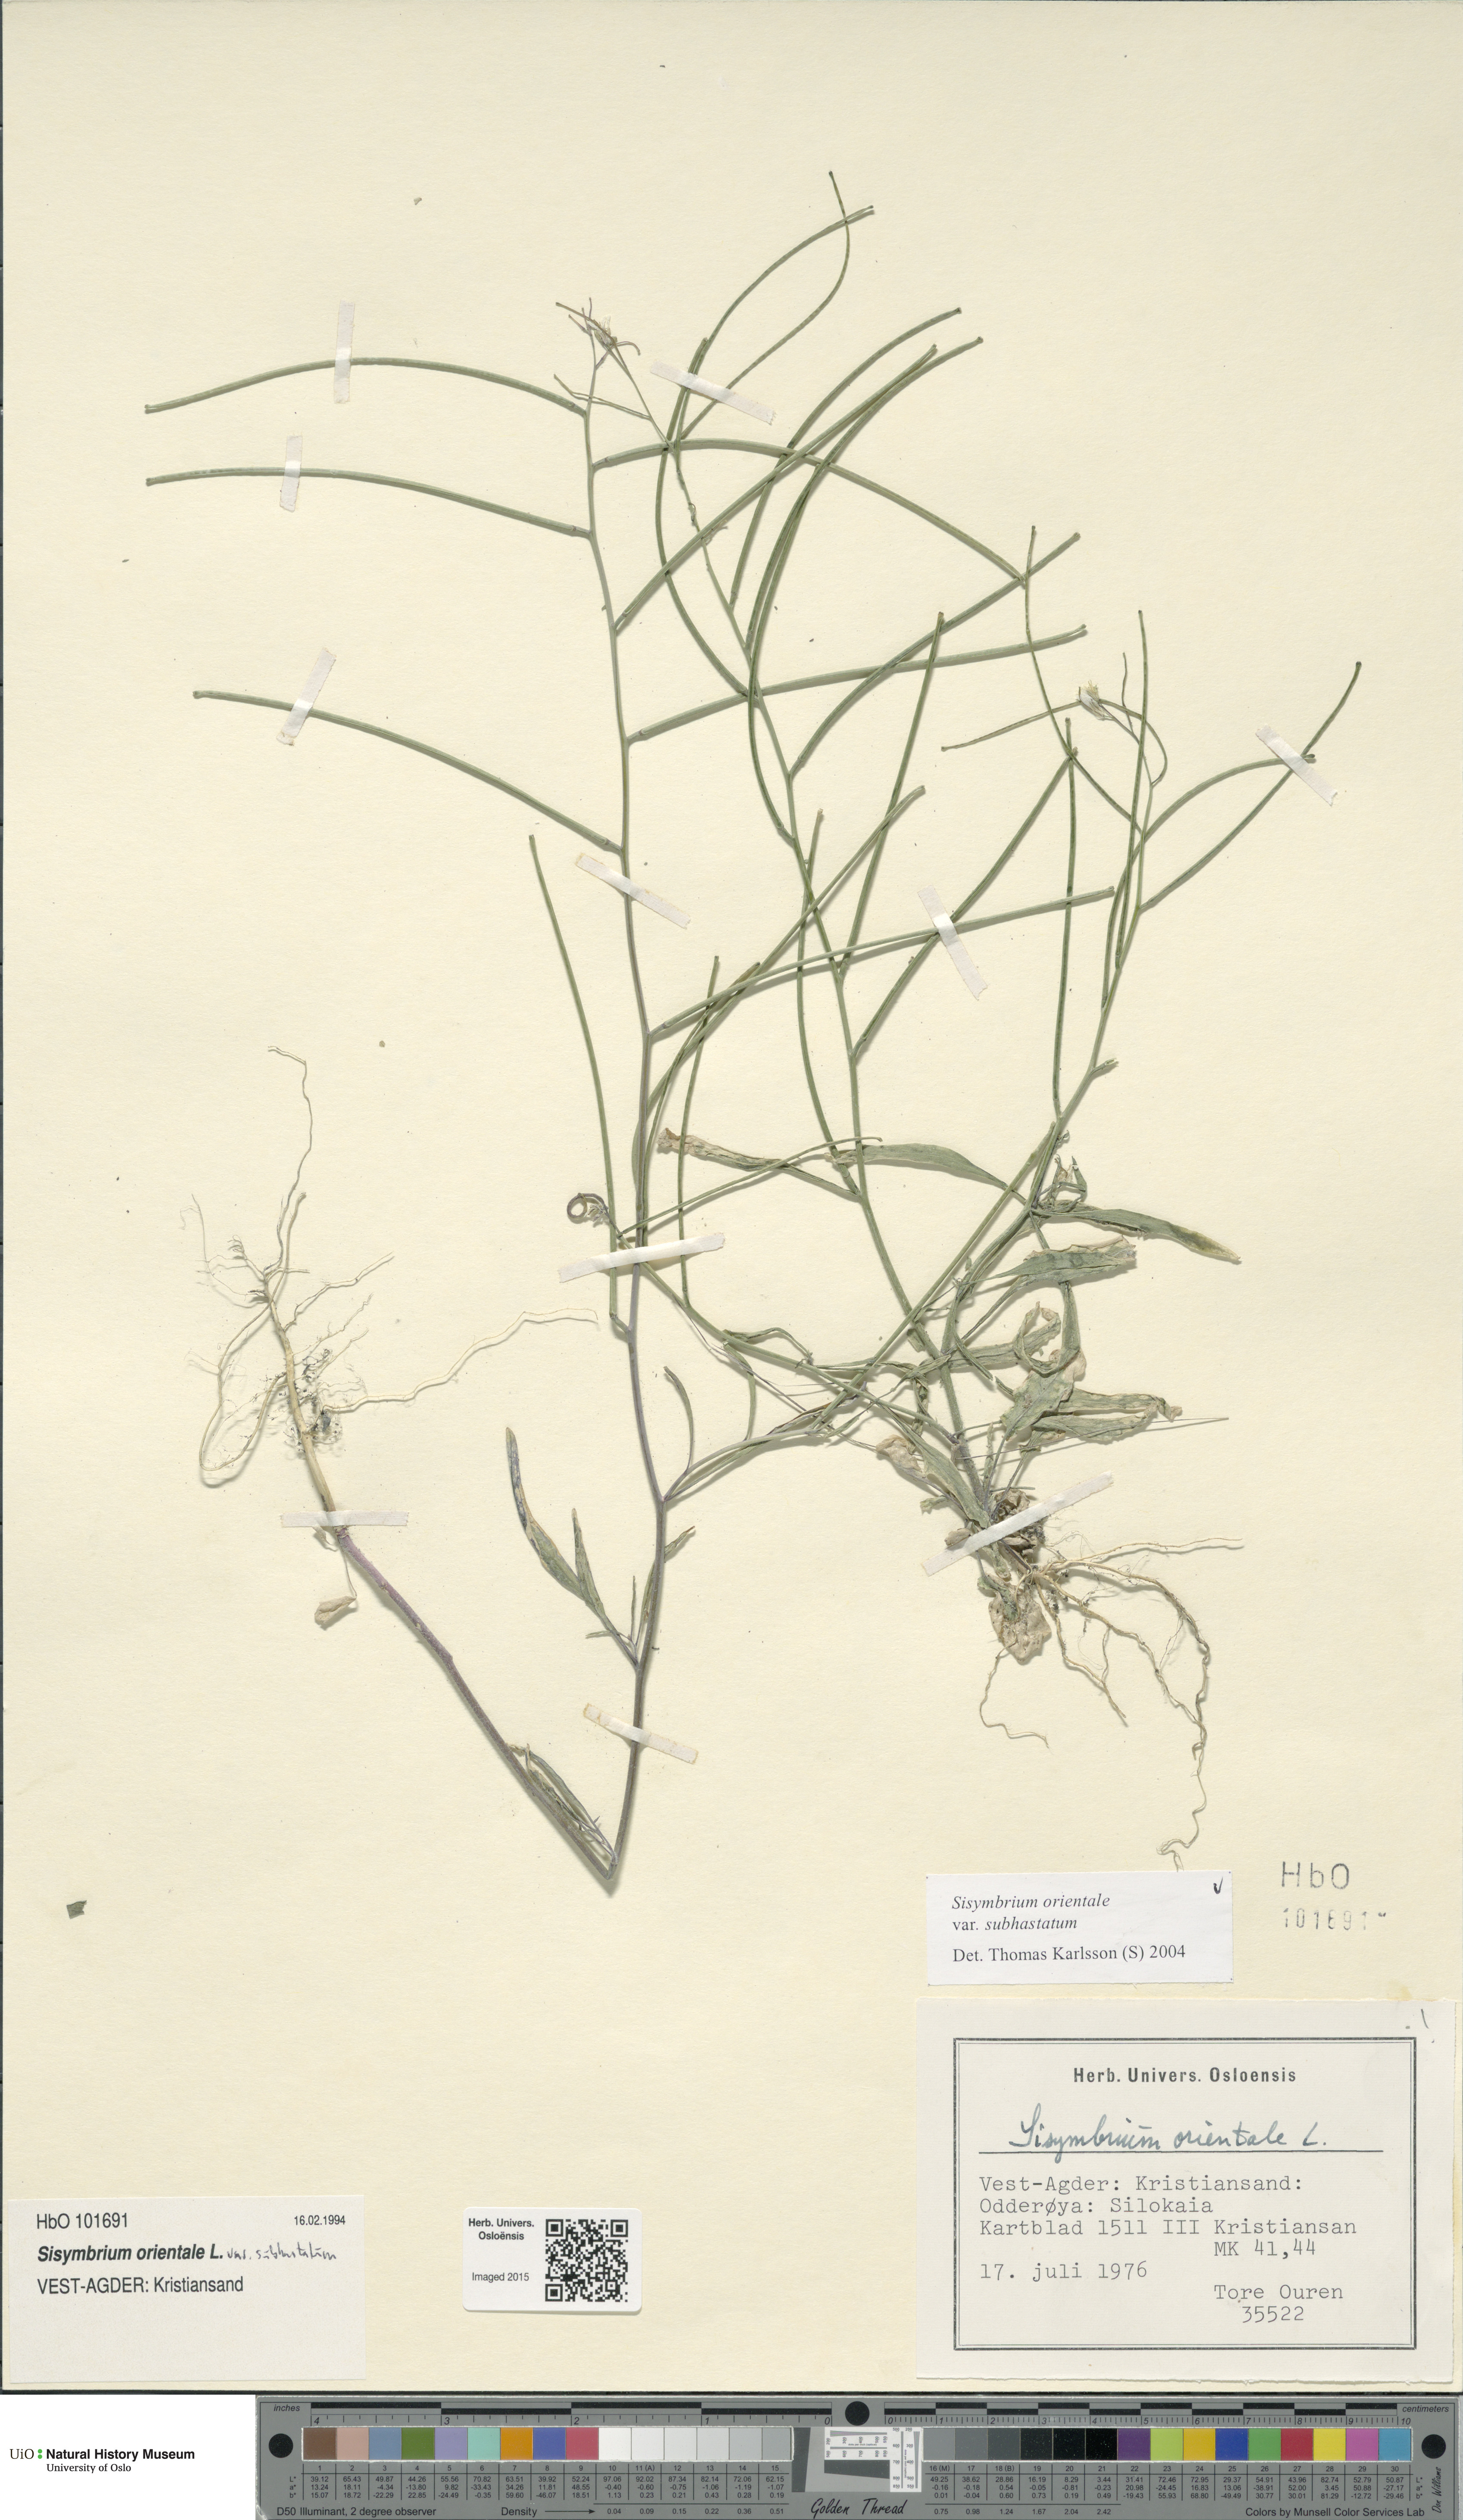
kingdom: Plantae
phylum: Tracheophyta
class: Magnoliopsida
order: Brassicales
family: Brassicaceae
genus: Sisymbrium
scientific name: Sisymbrium orientale
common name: Eastern rocket
